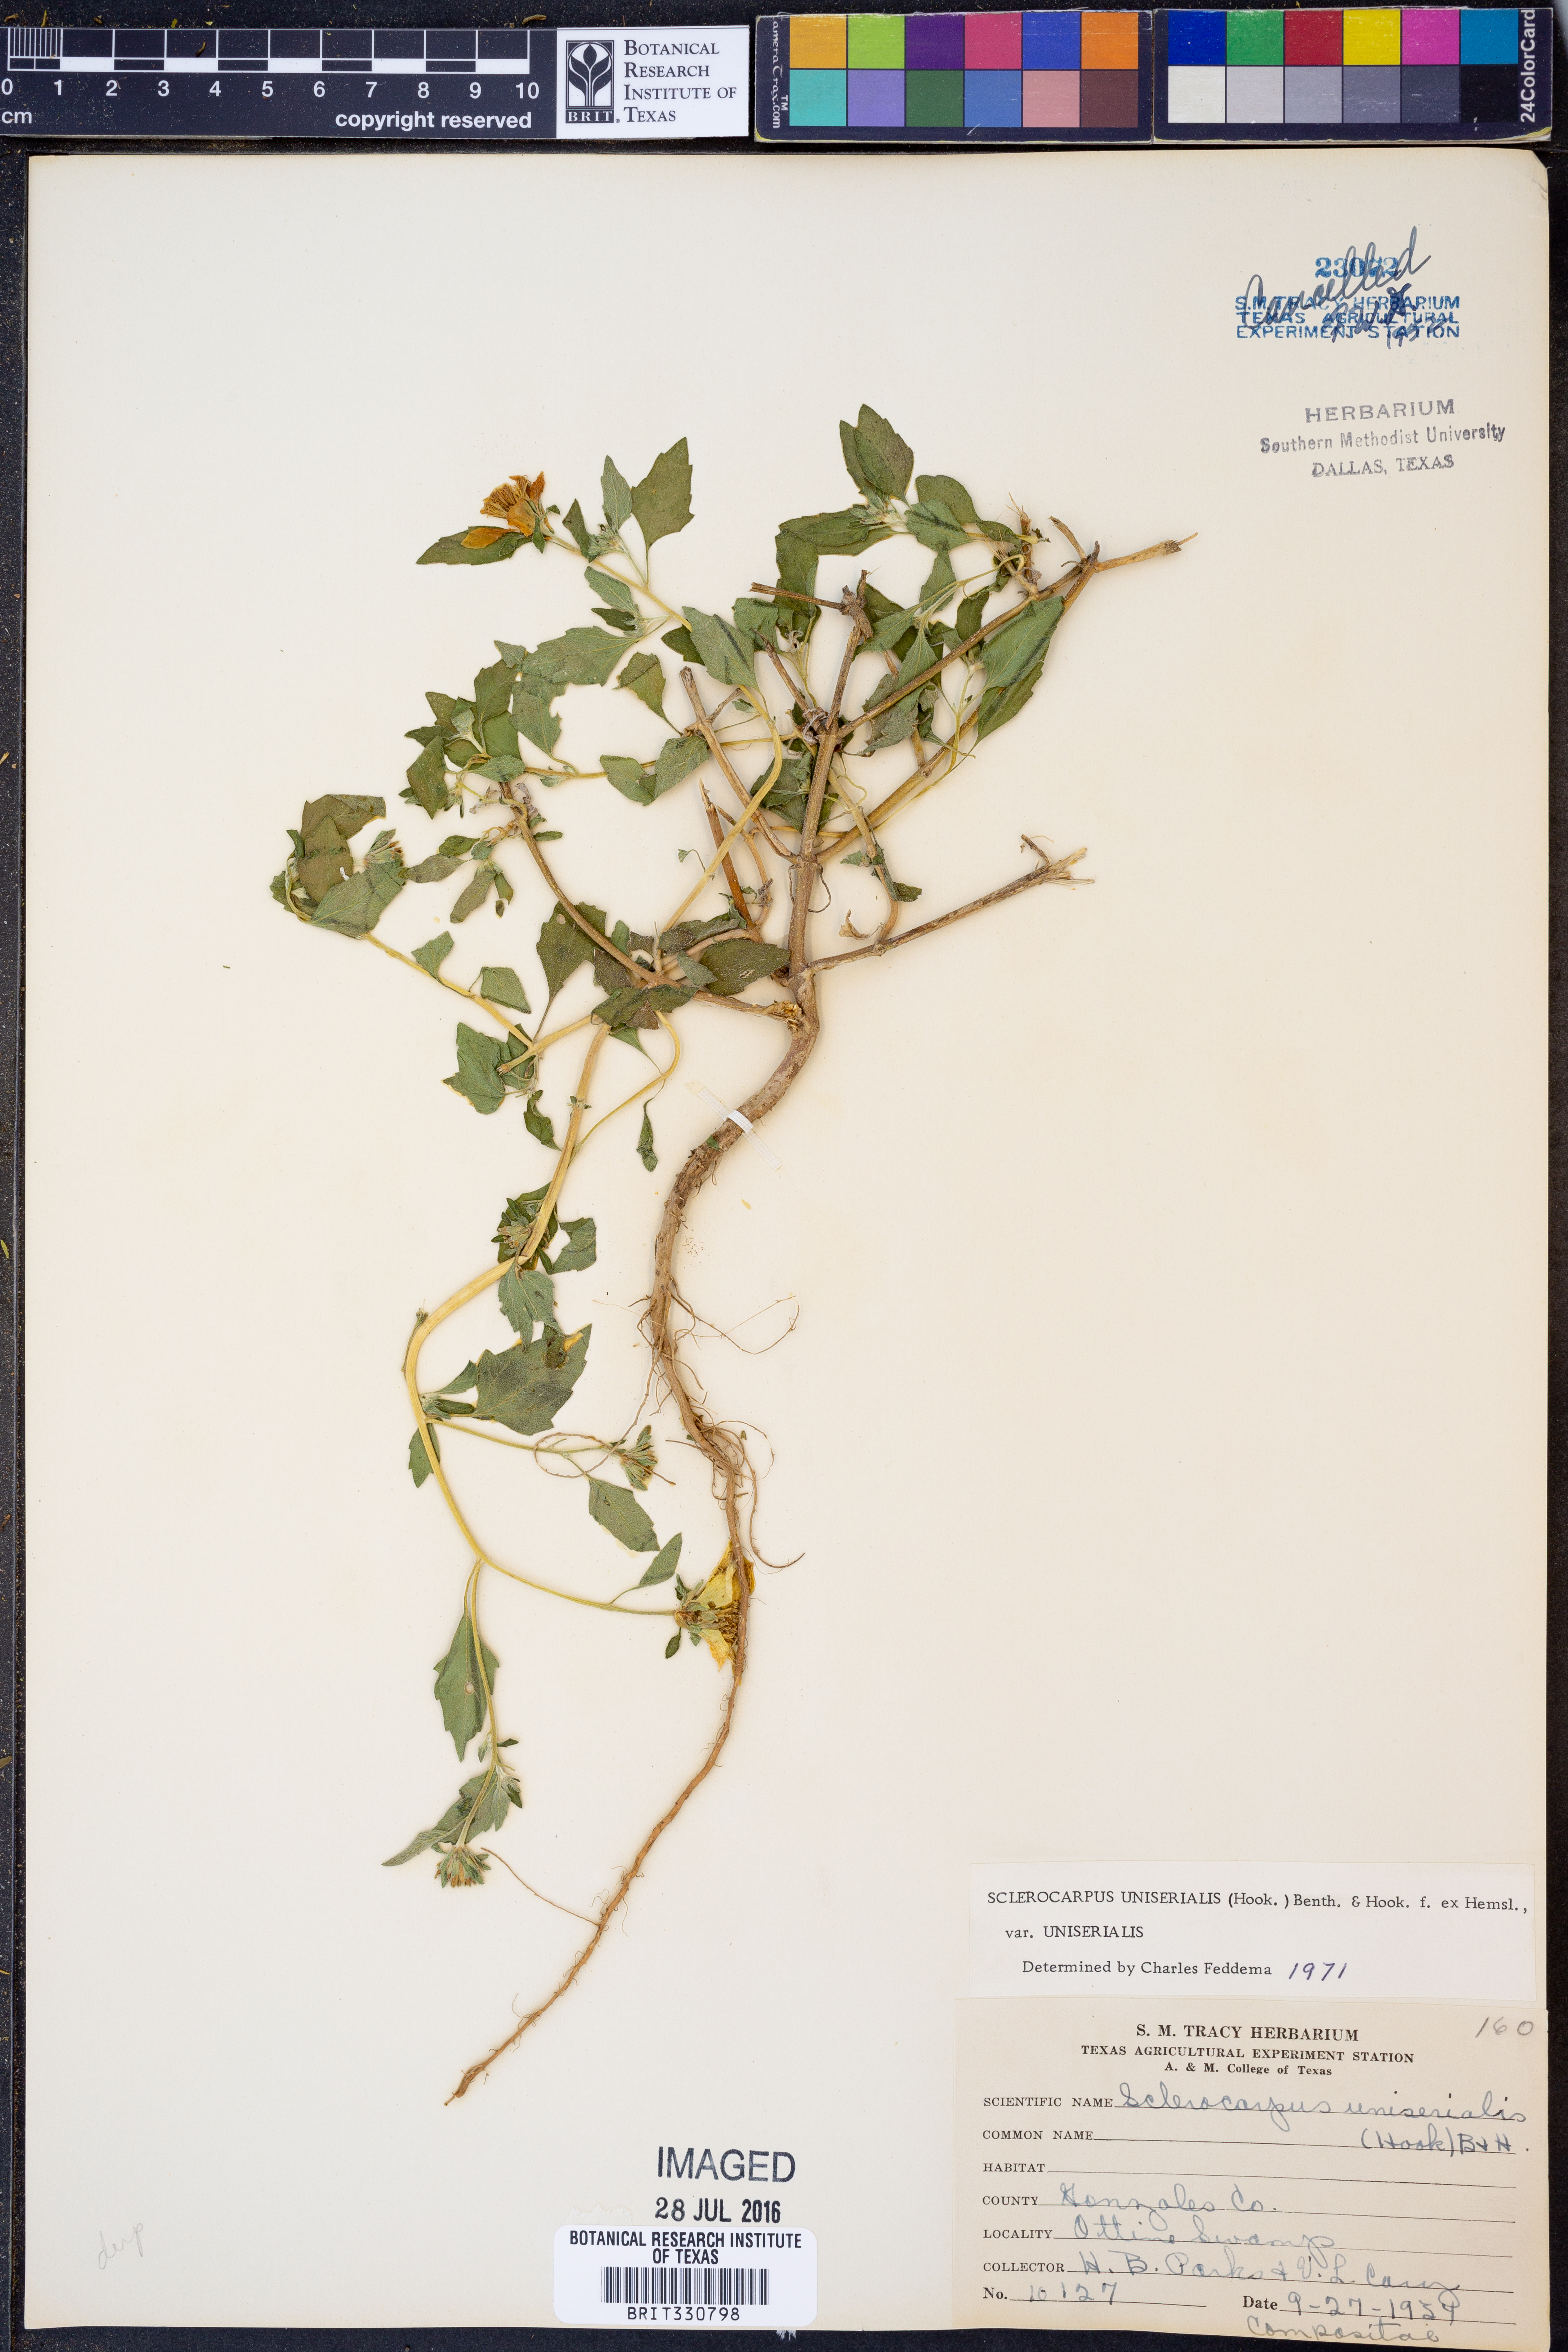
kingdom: Plantae
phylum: Tracheophyta
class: Magnoliopsida
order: Asterales
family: Asteraceae
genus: Sclerocarpus
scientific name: Sclerocarpus uniserialis
